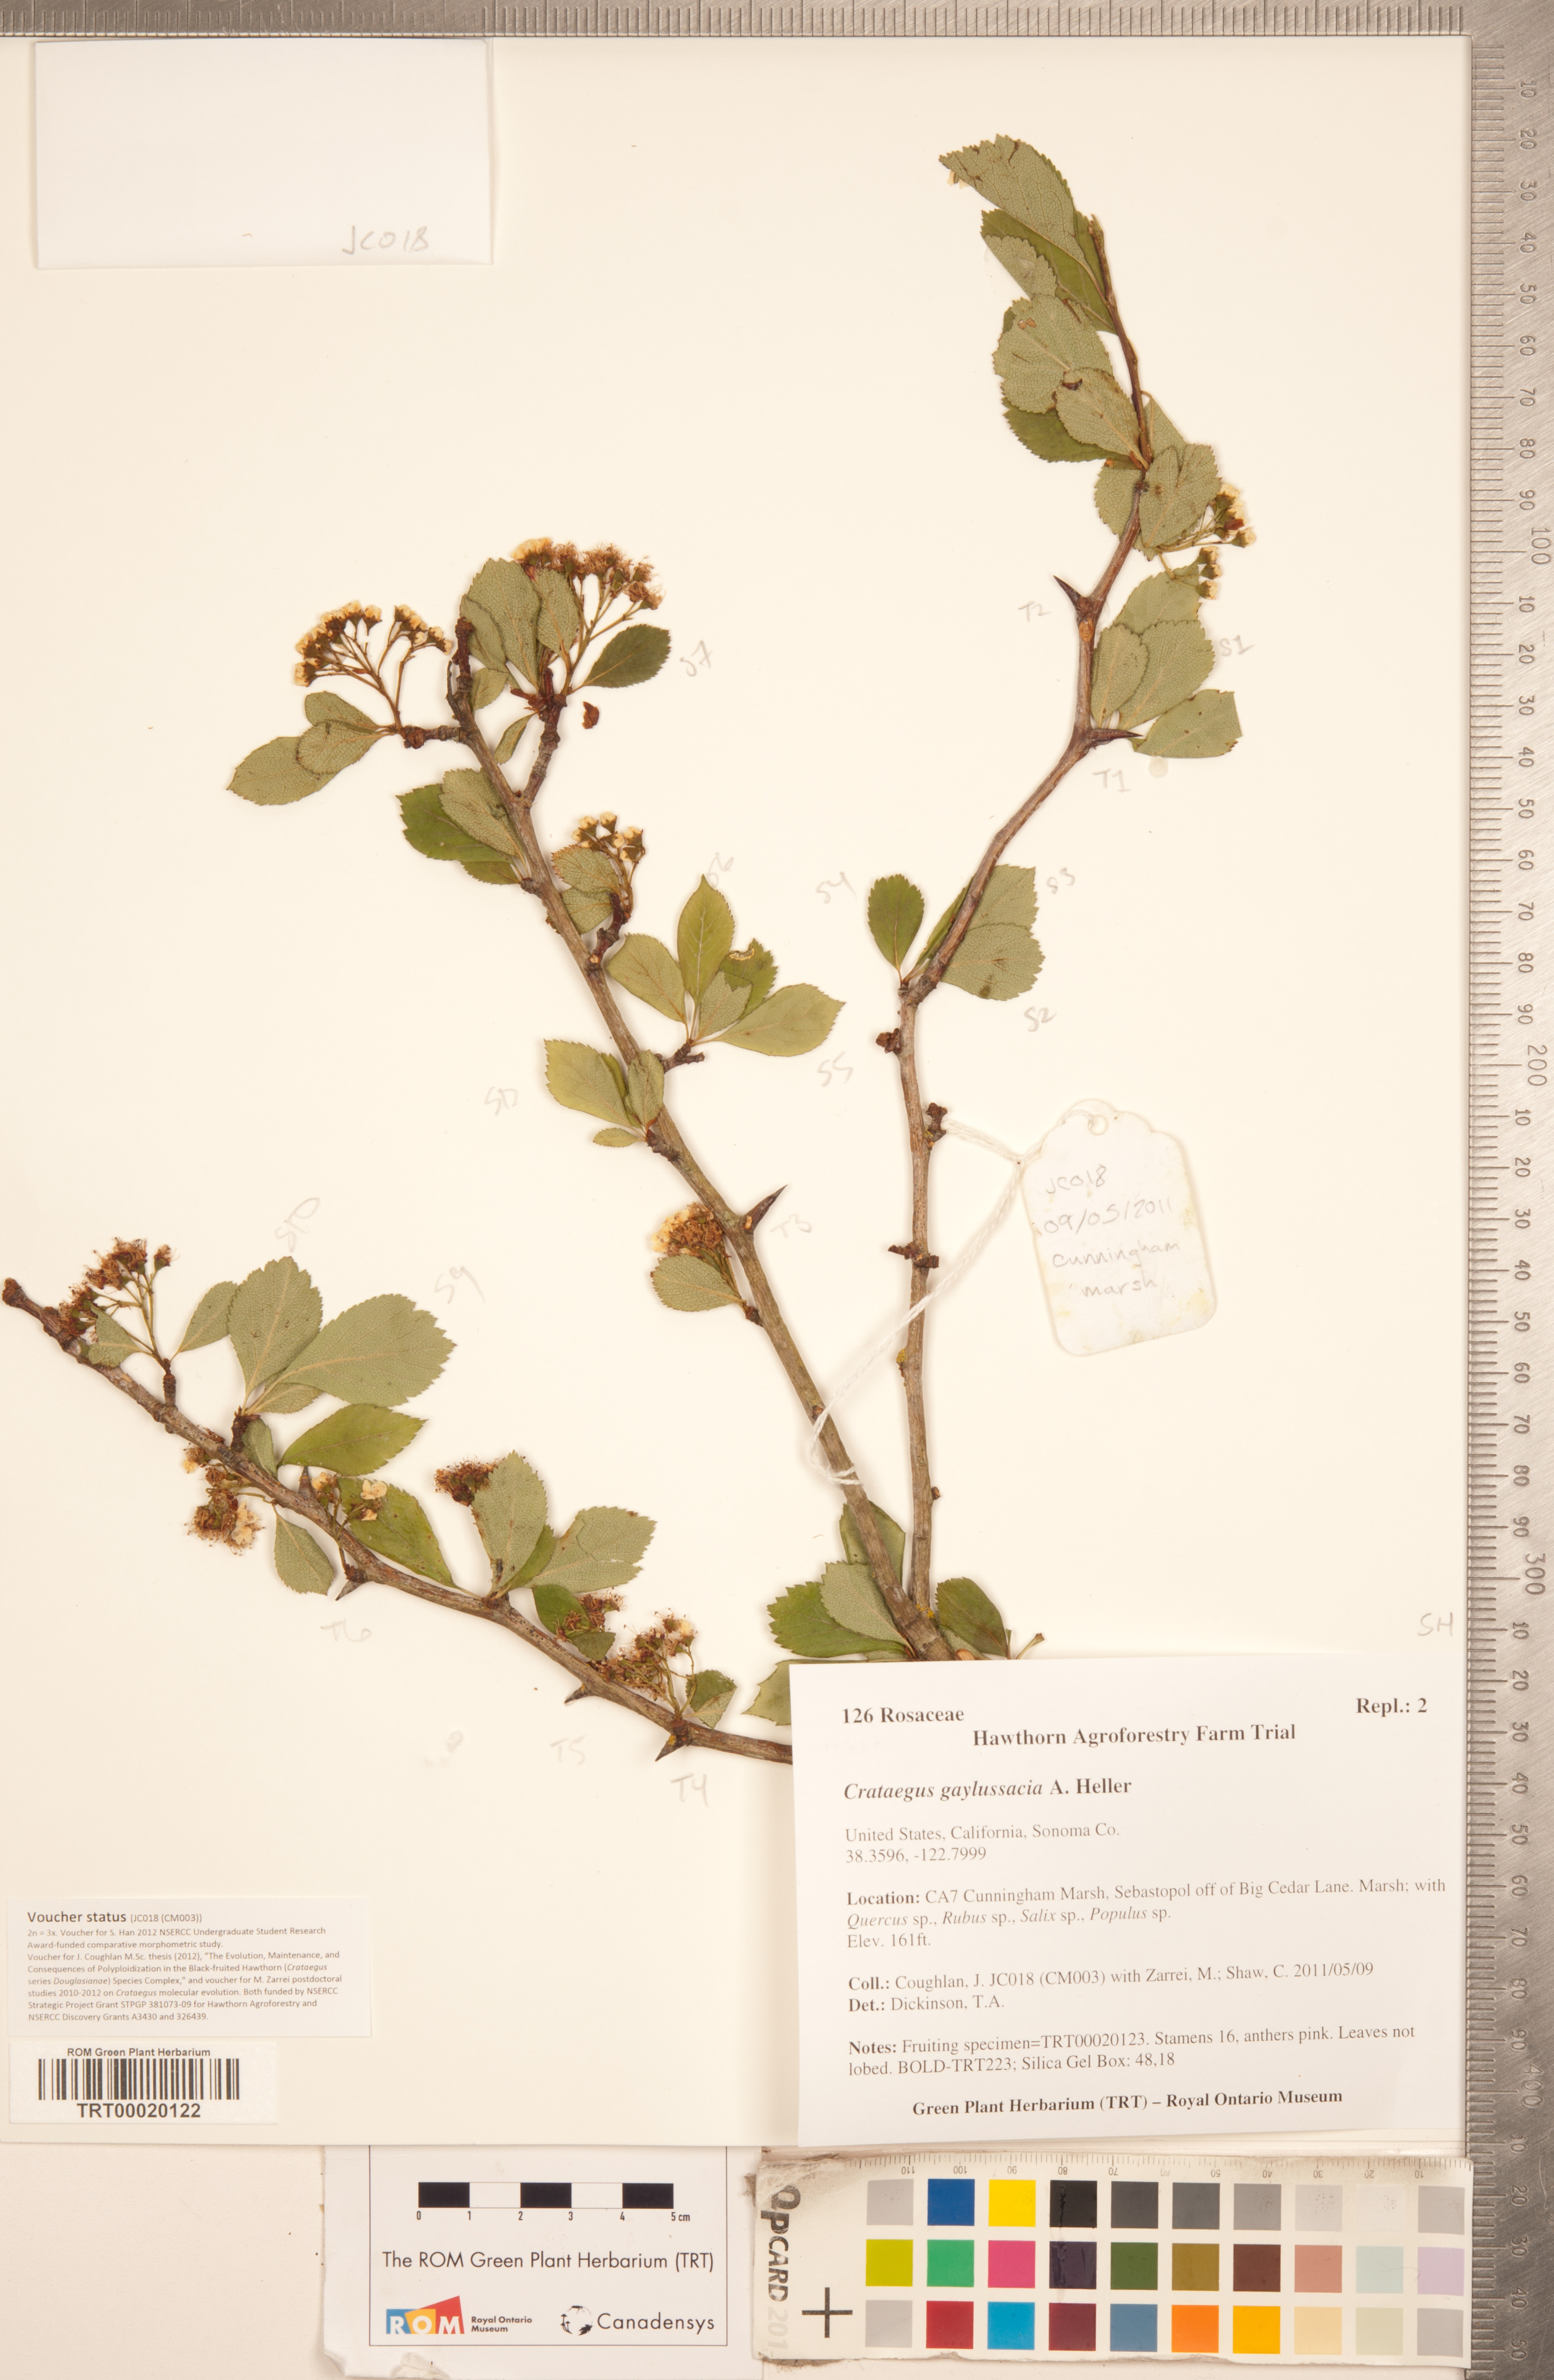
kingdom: Plantae
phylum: Tracheophyta
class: Magnoliopsida
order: Rosales
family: Rosaceae
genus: Crataegus
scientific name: Crataegus gaylussacia
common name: Huckleberry hawthorn
